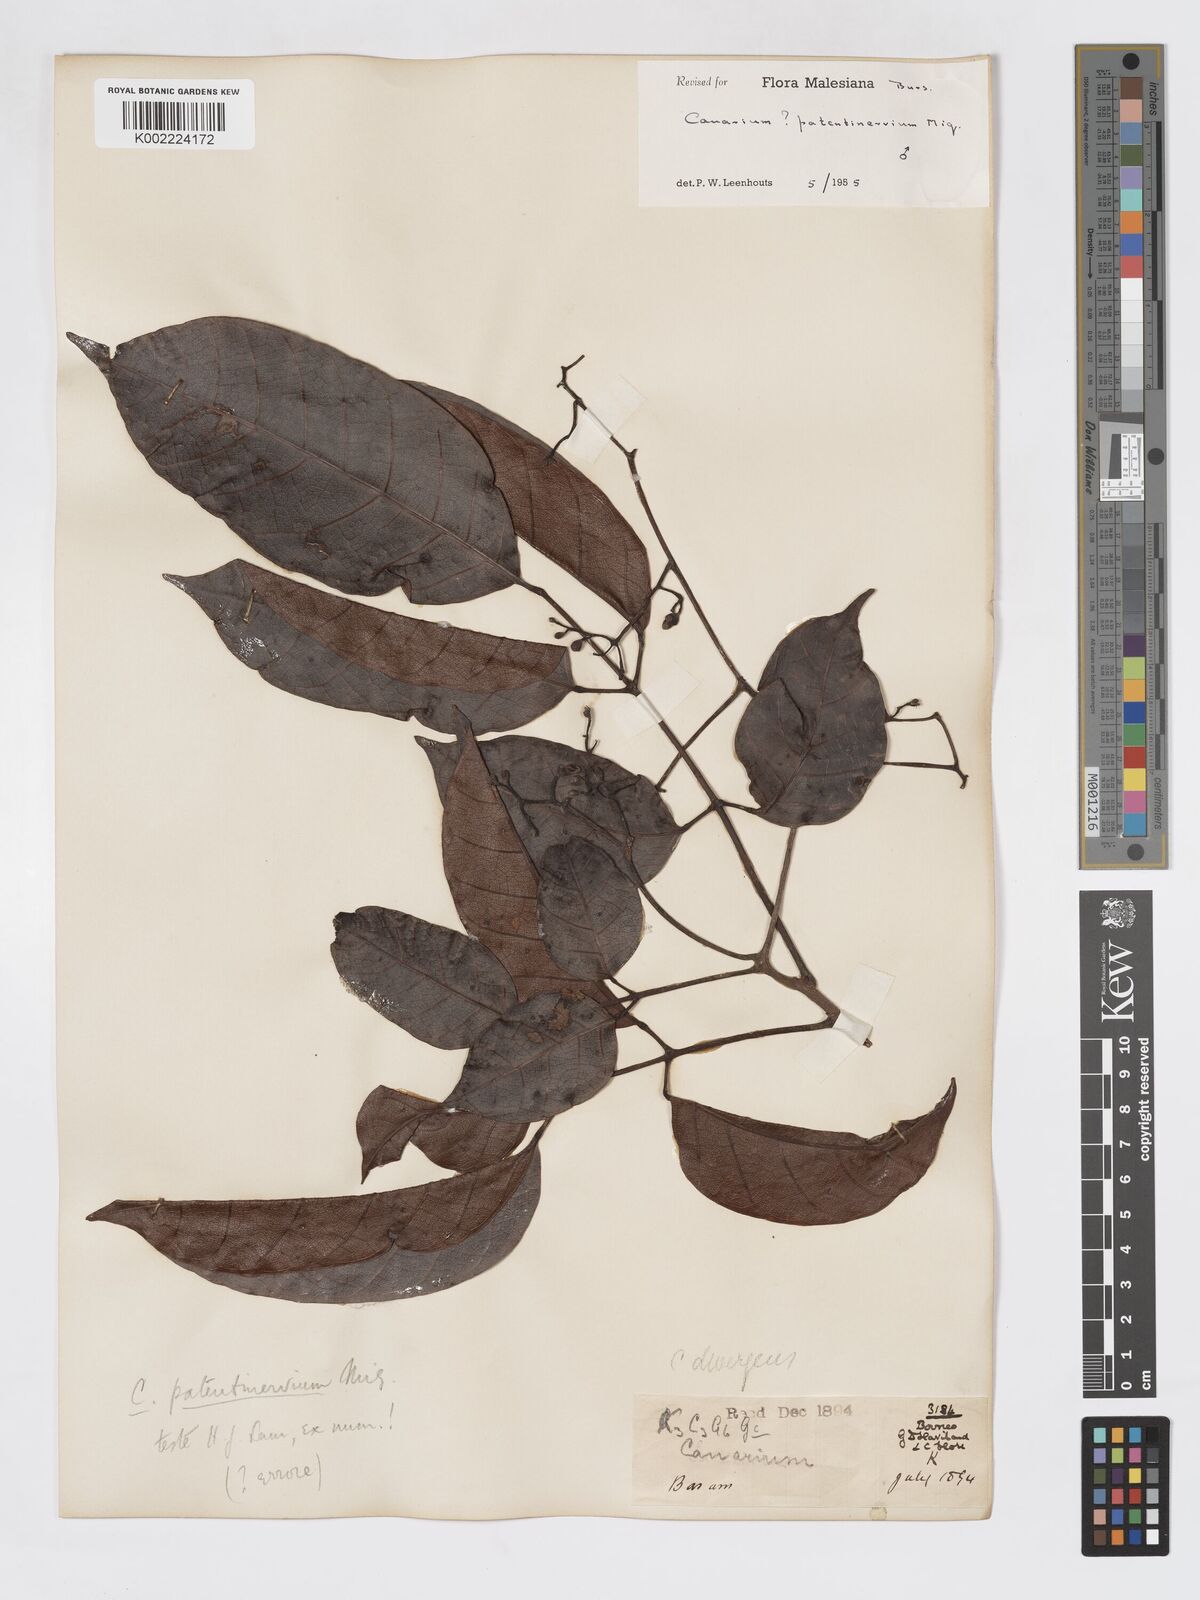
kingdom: Plantae
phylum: Tracheophyta
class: Magnoliopsida
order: Sapindales
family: Burseraceae
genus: Canarium
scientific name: Canarium patentinervium
